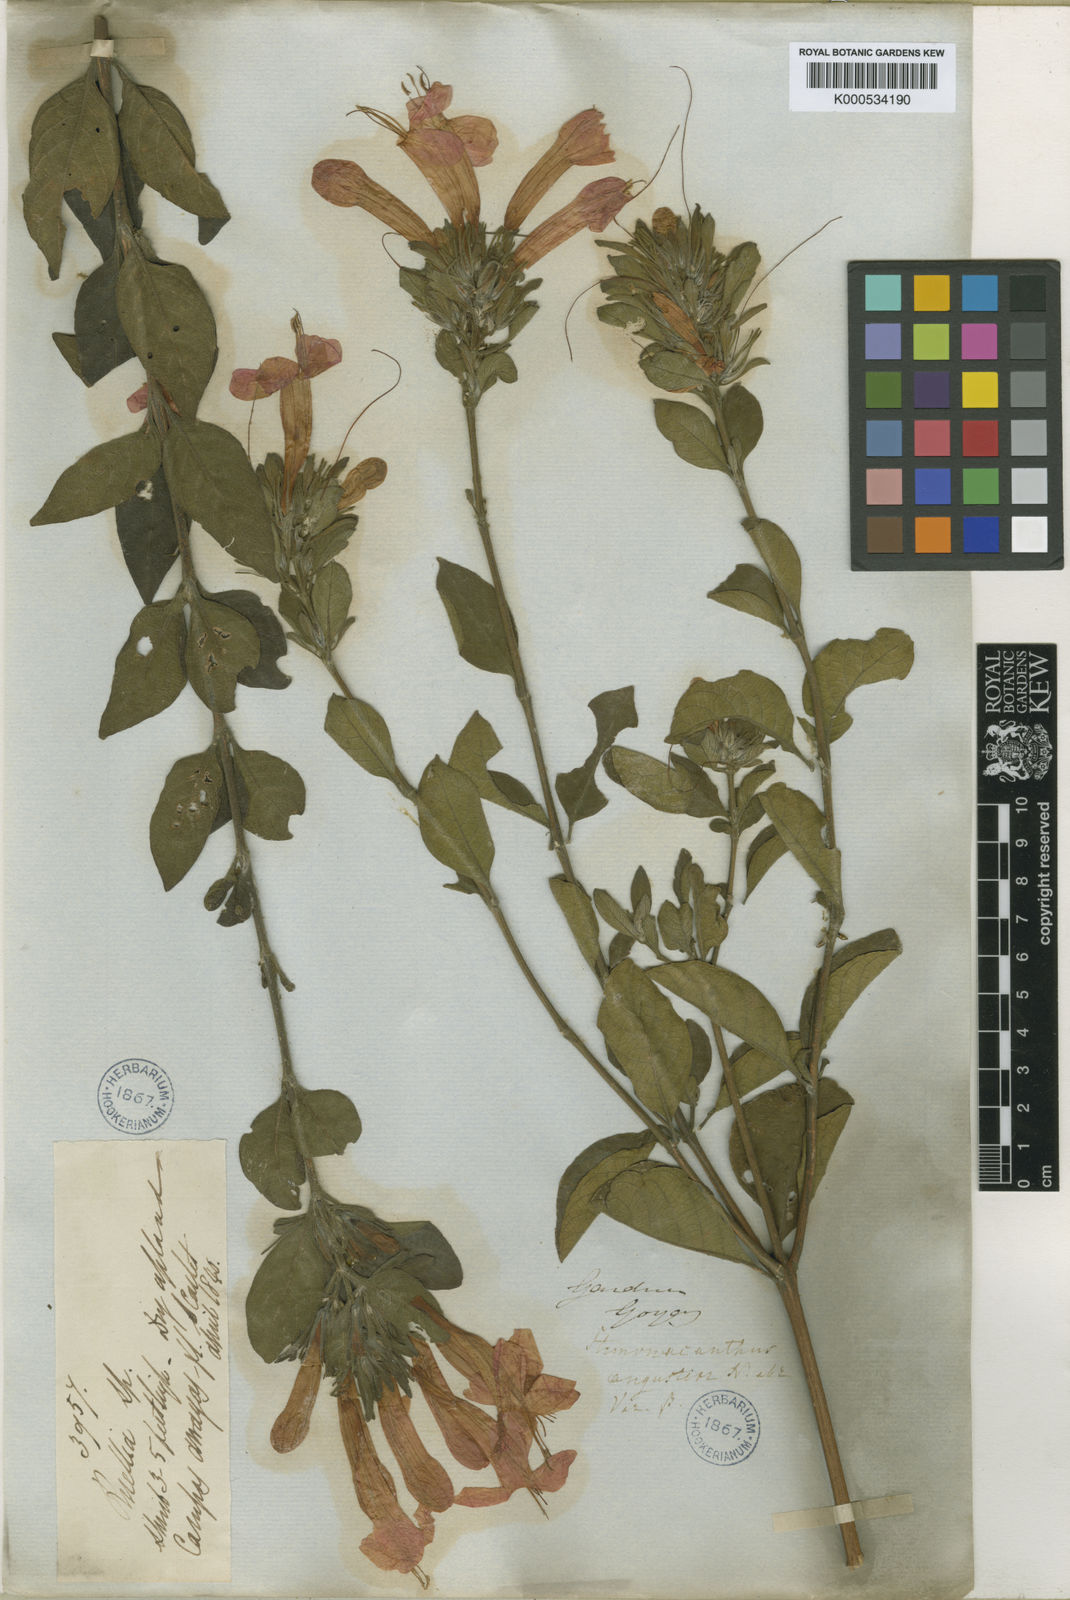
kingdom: Plantae
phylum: Tracheophyta
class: Magnoliopsida
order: Lamiales
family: Acanthaceae
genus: Ruellia
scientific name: Ruellia angustior
